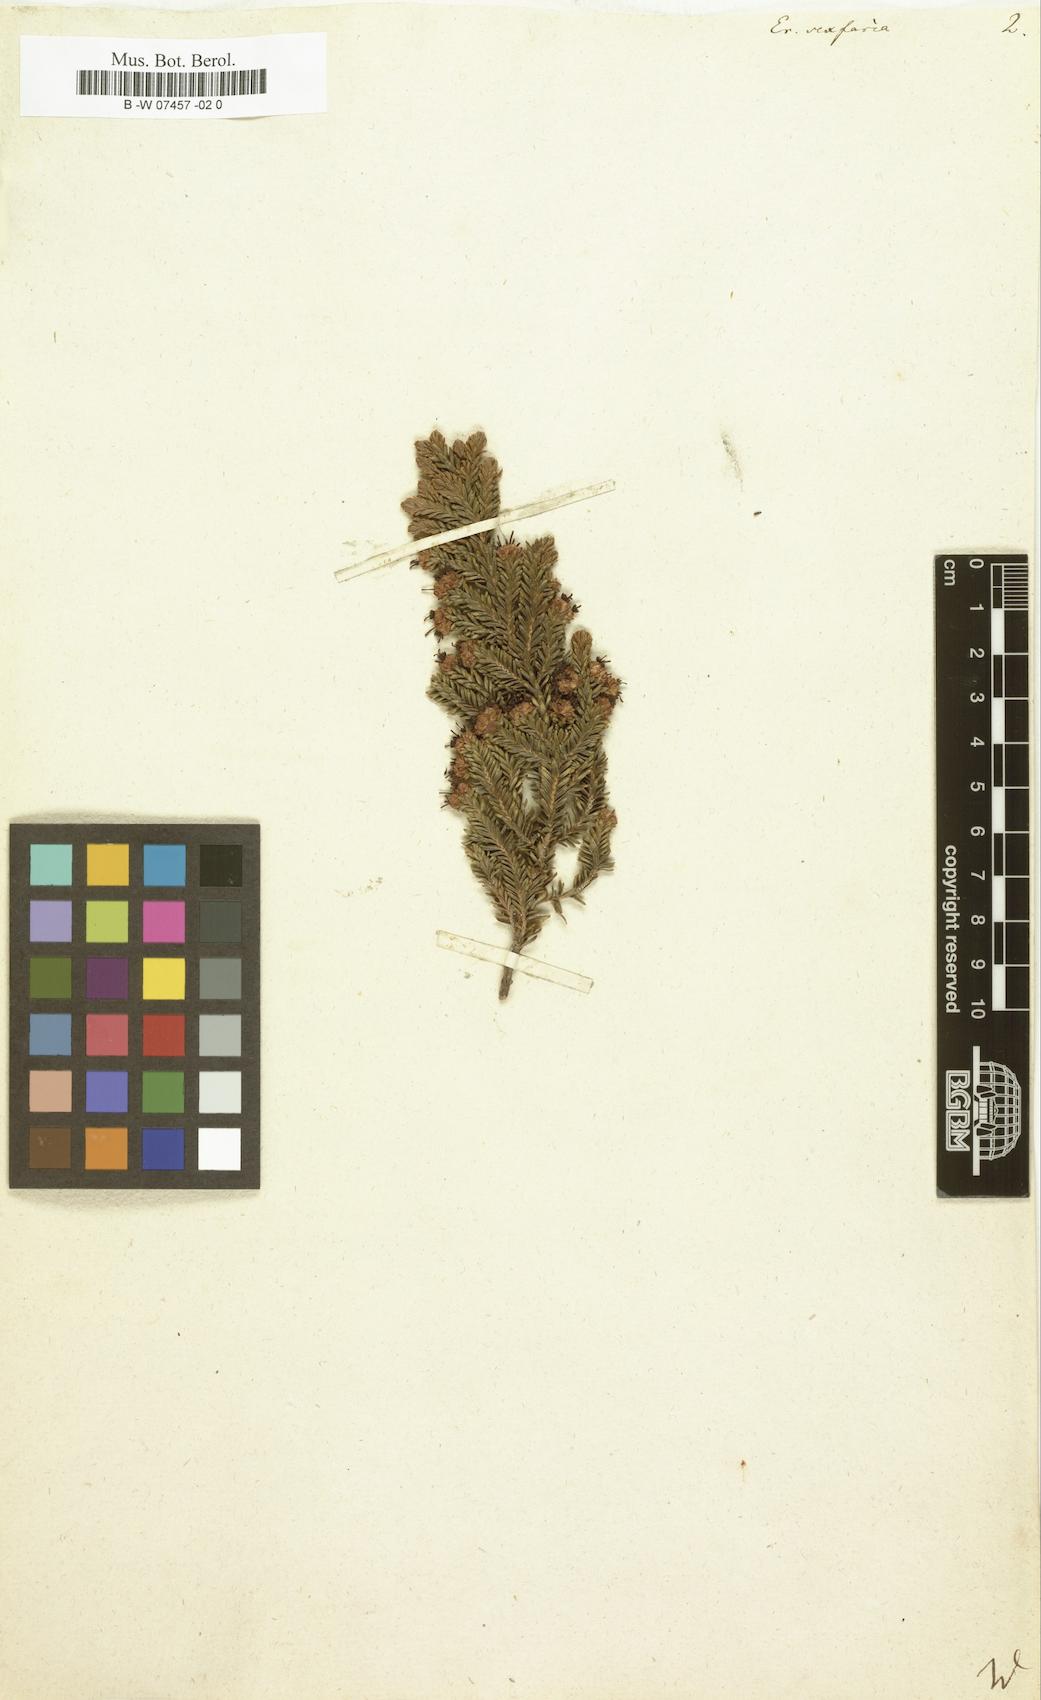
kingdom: Plantae
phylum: Tracheophyta
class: Magnoliopsida
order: Ericales
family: Ericaceae
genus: Erica
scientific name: Erica sexfaria
